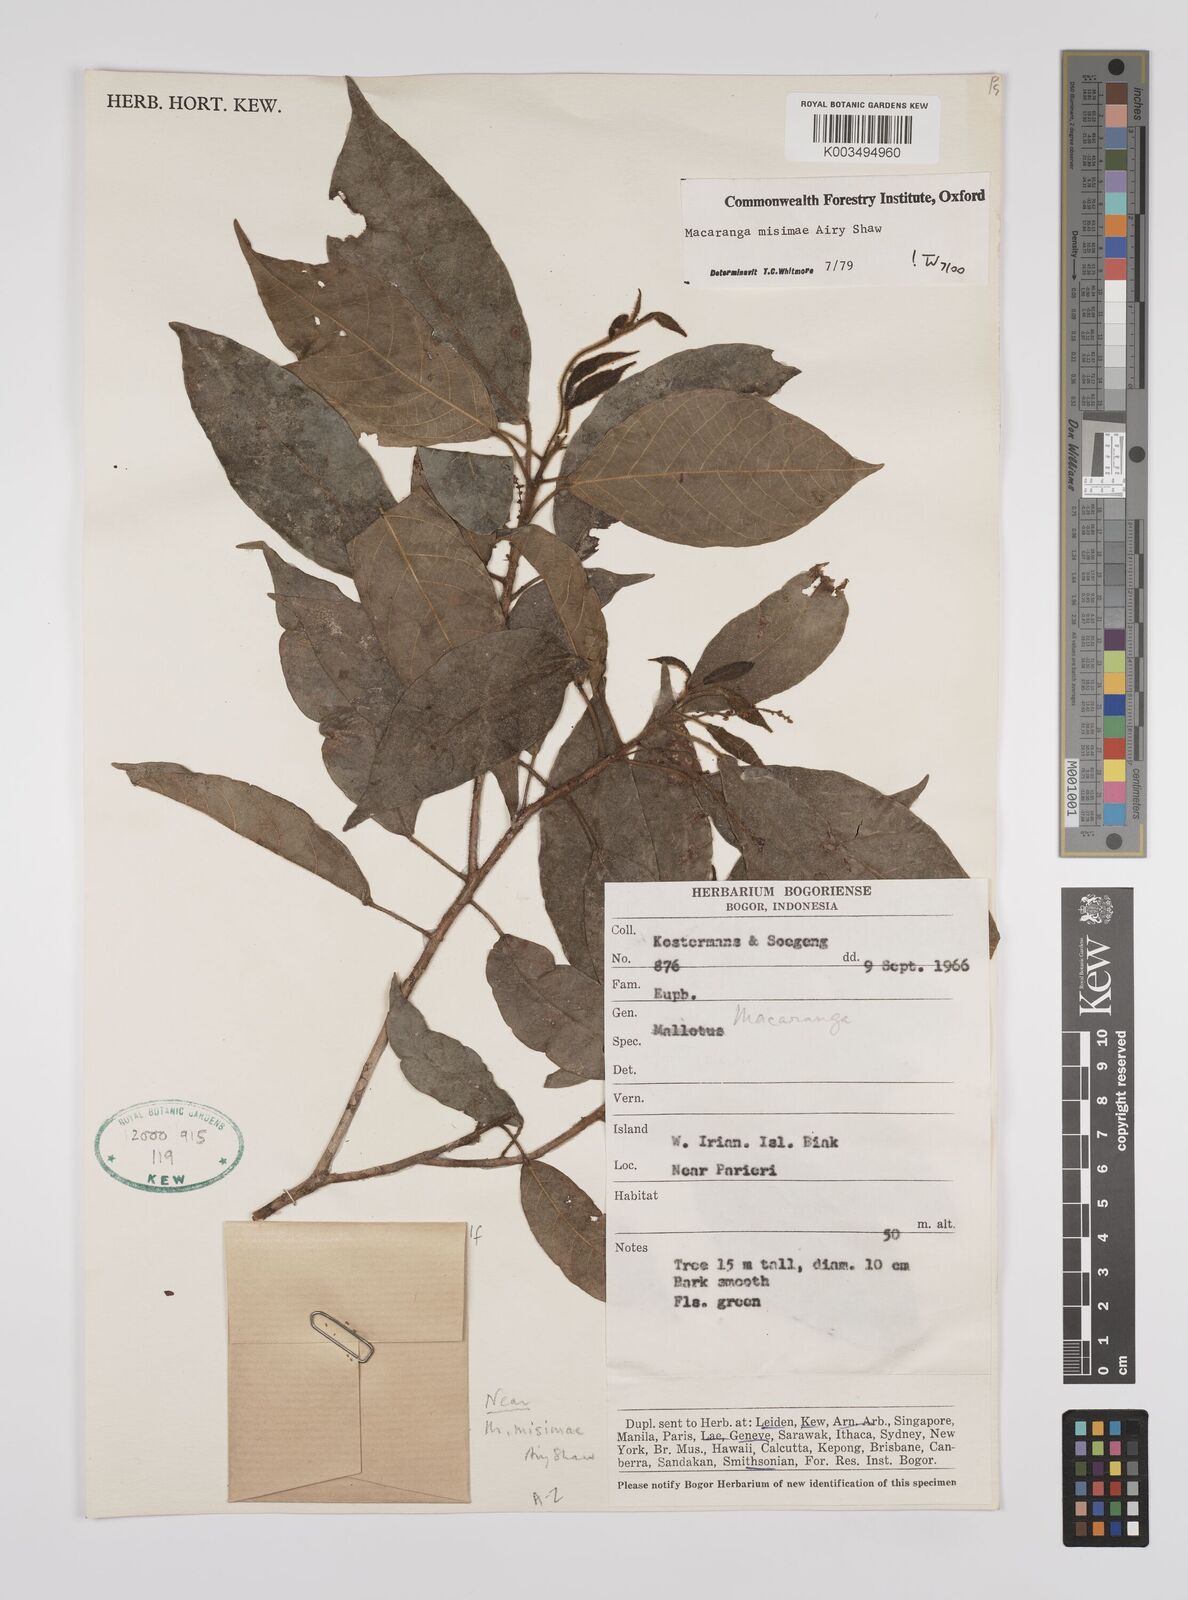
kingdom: Plantae
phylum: Tracheophyta
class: Magnoliopsida
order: Malpighiales
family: Euphorbiaceae
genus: Macaranga
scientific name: Macaranga misimae
